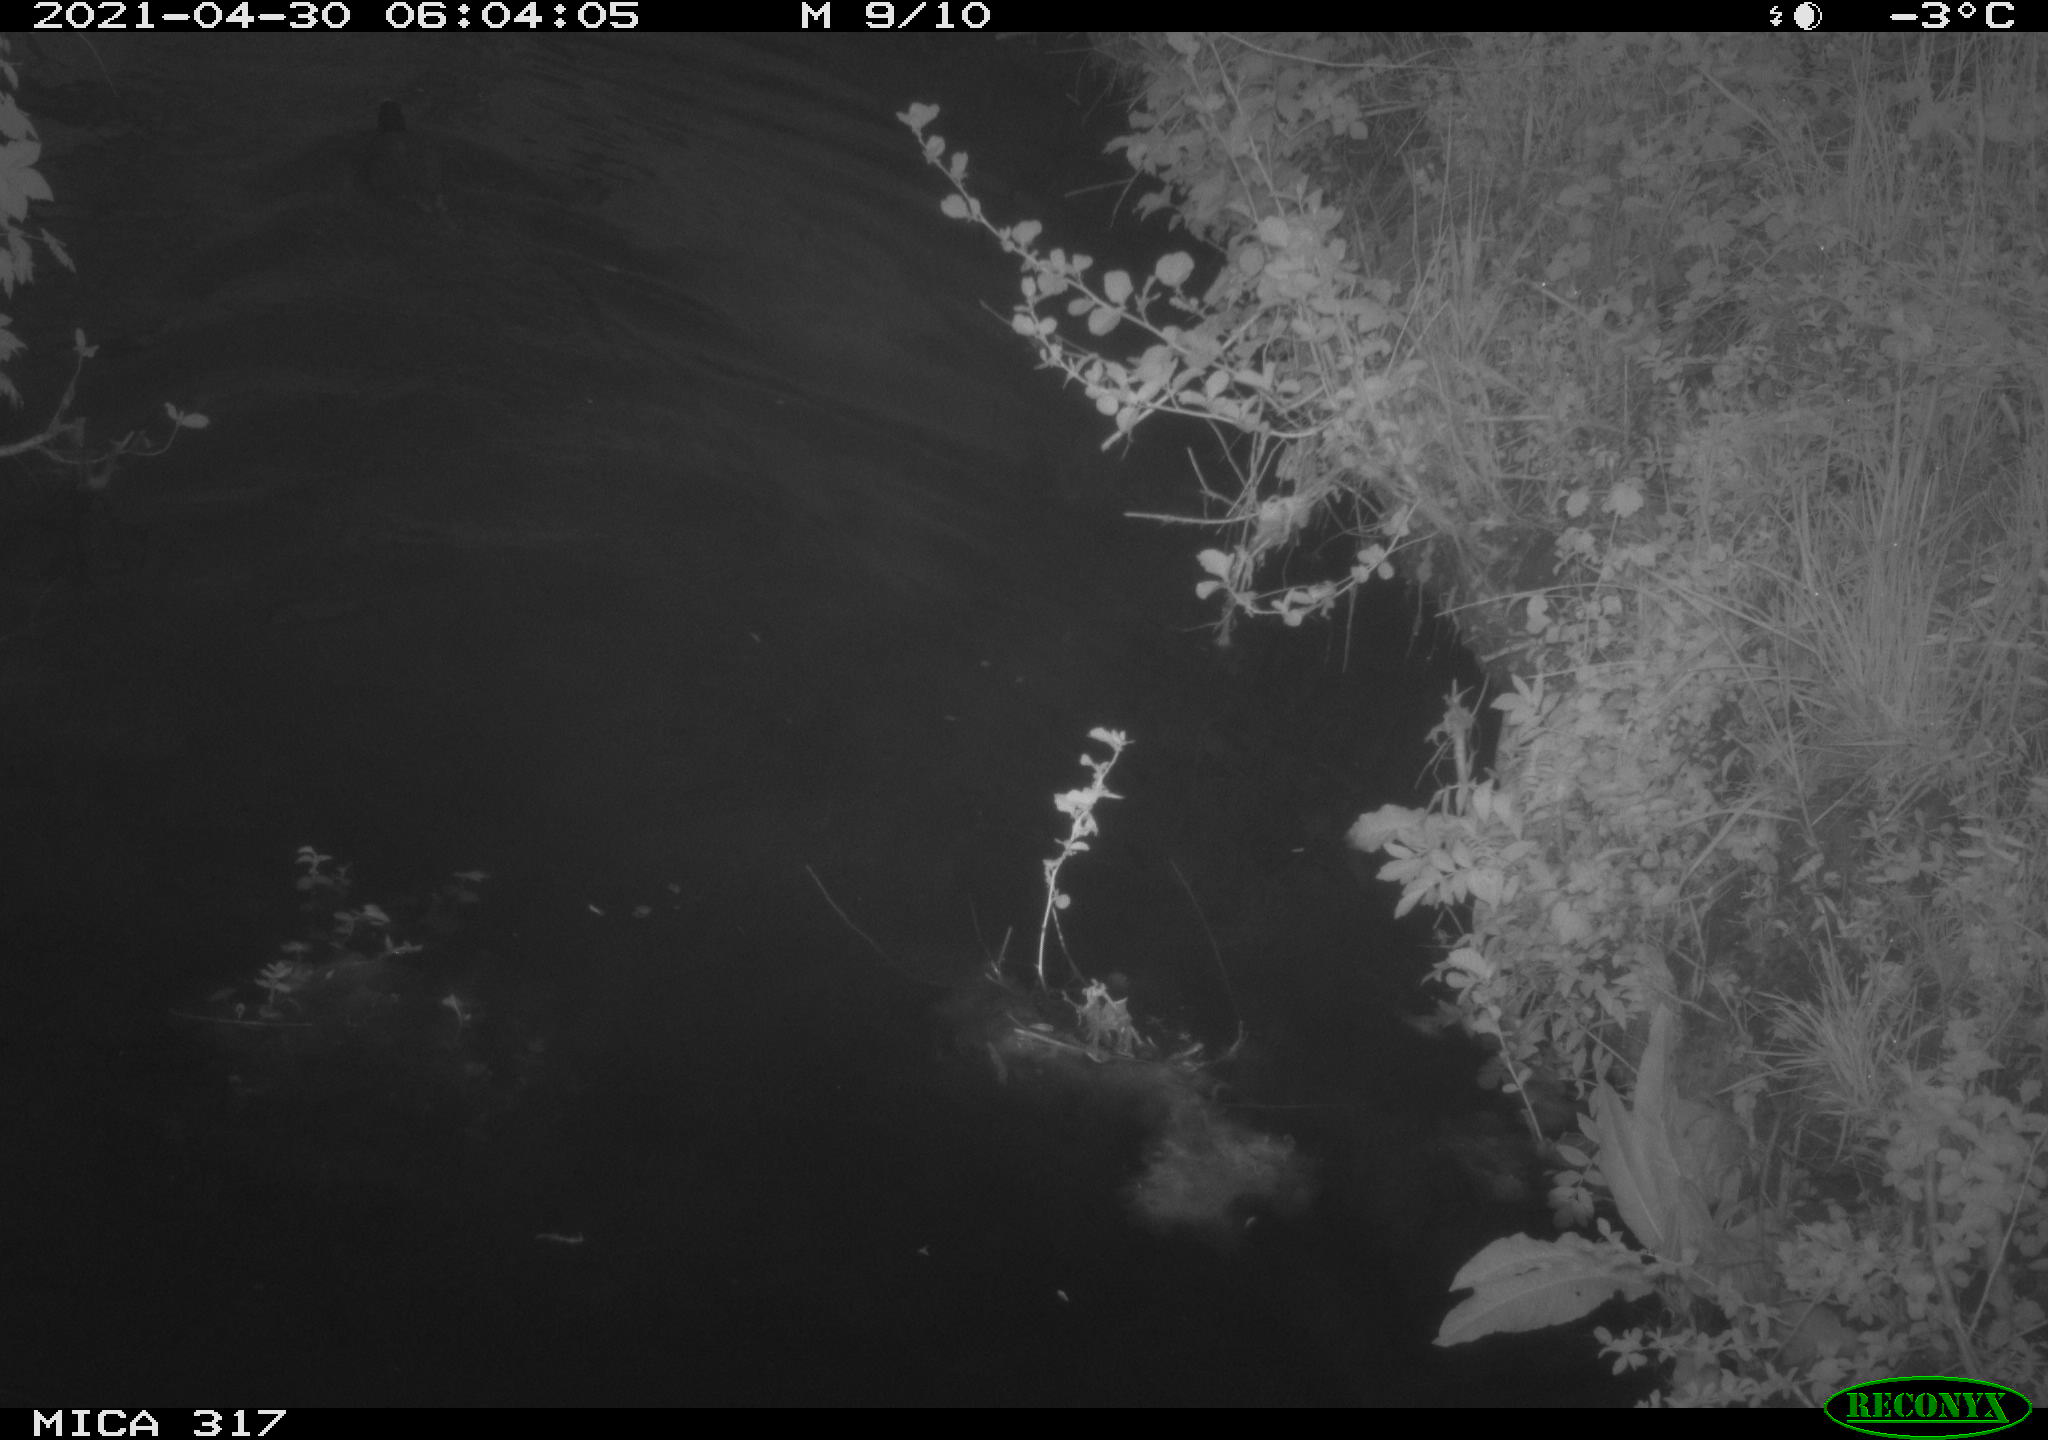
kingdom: Animalia
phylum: Chordata
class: Aves
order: Gruiformes
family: Rallidae
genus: Fulica
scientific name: Fulica atra
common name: Eurasian coot
